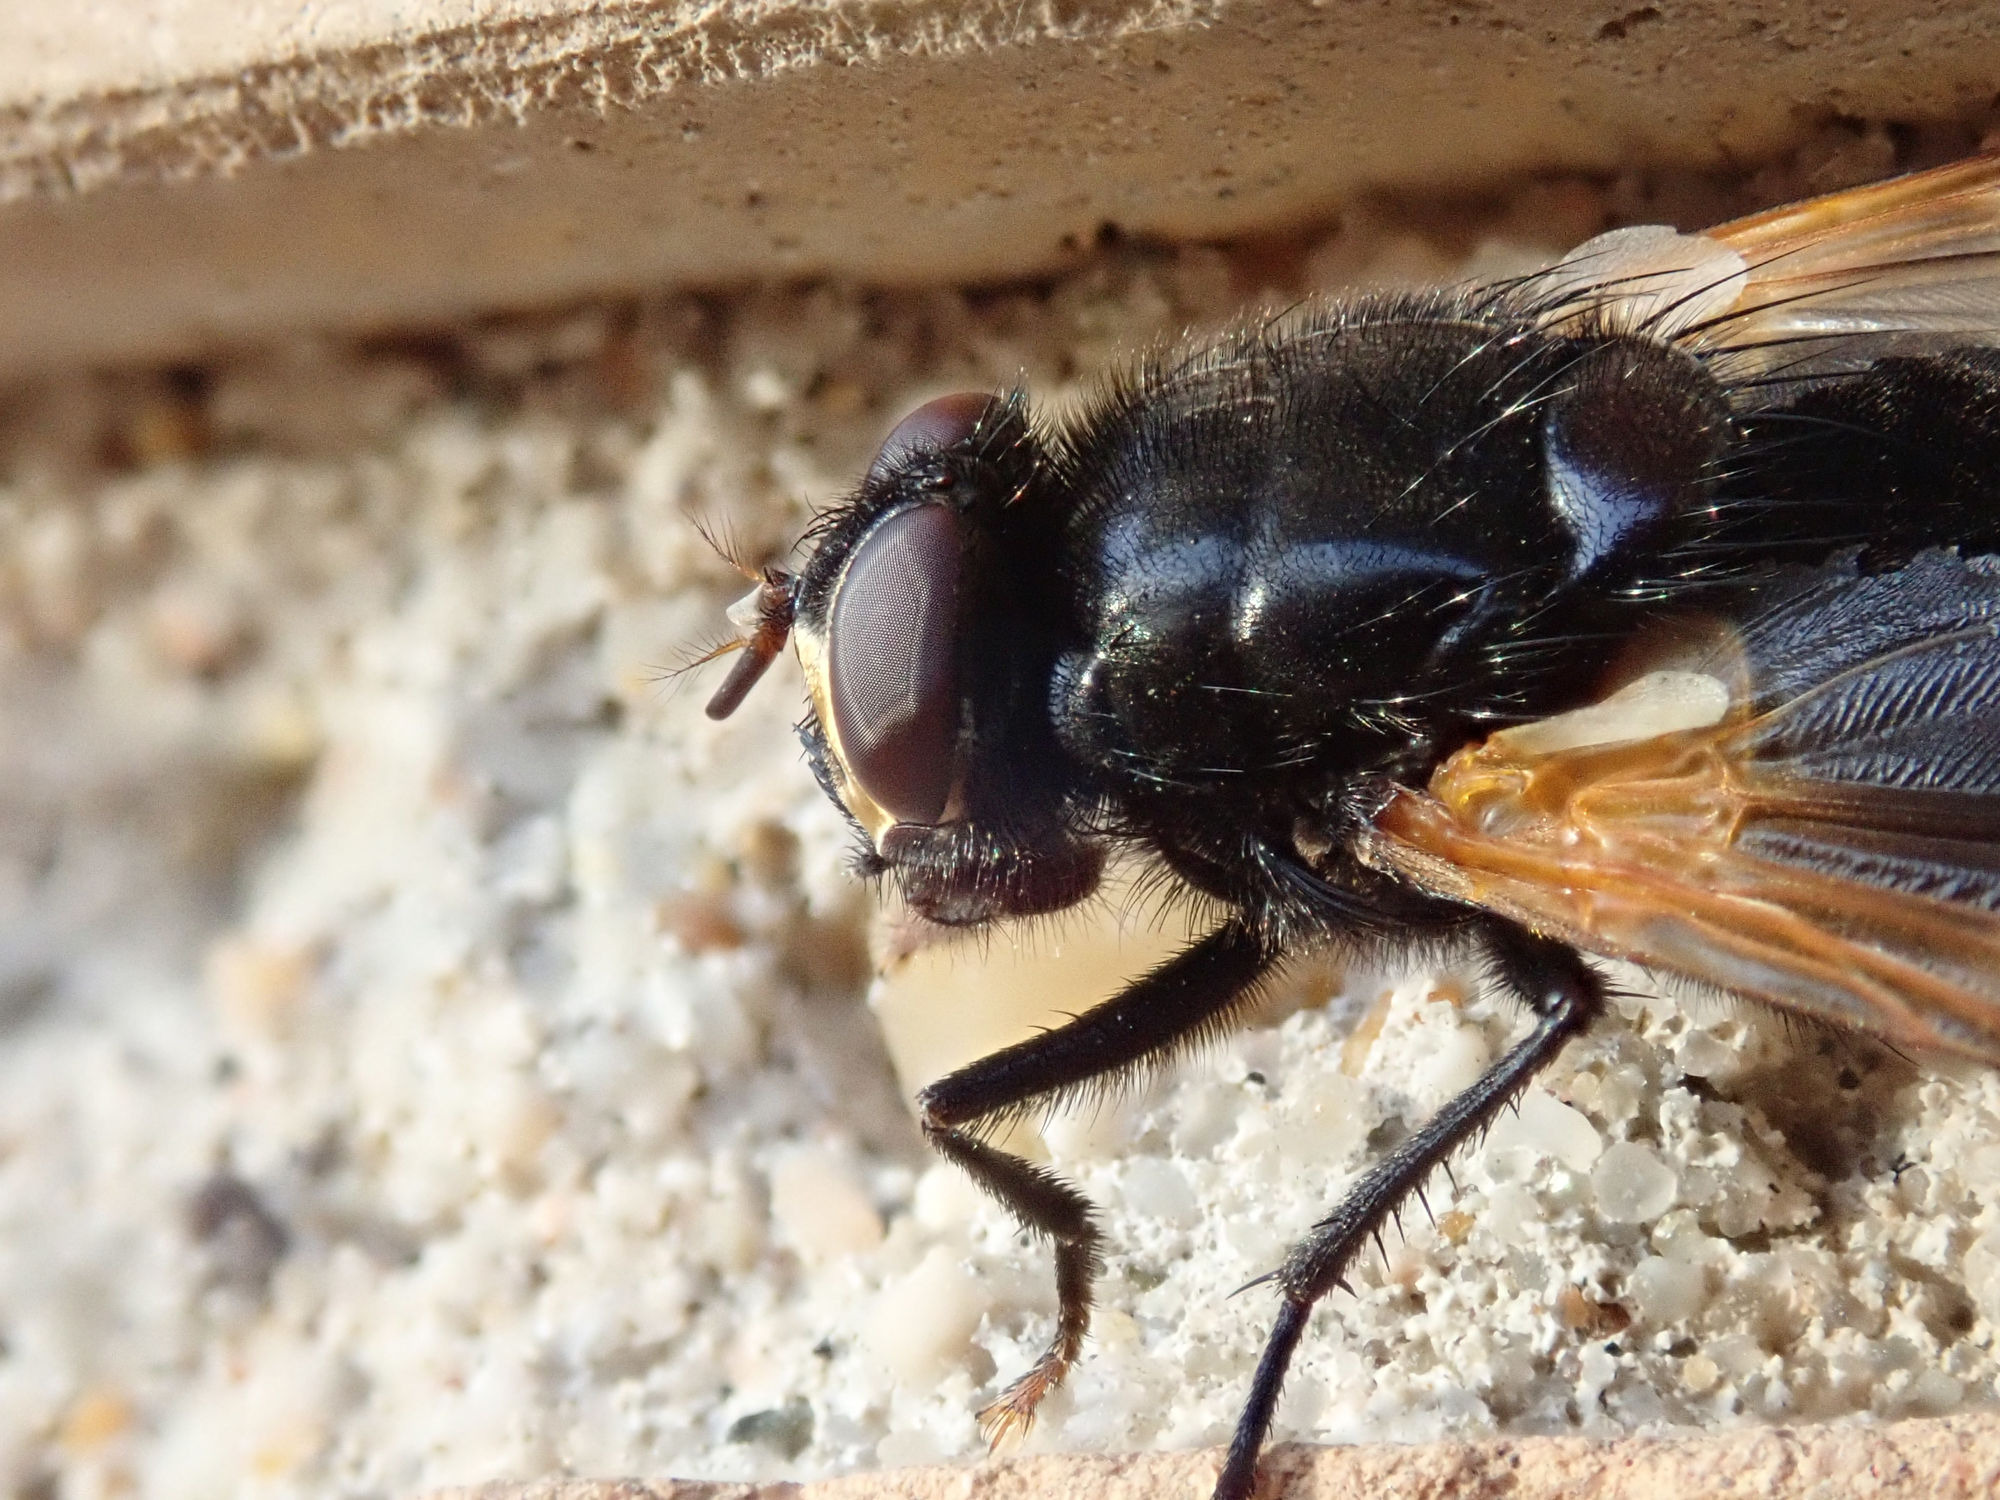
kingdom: Animalia
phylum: Arthropoda
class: Insecta
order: Diptera
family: Muscidae
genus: Mesembrina
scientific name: Mesembrina meridiana
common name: Gulvinget flue
